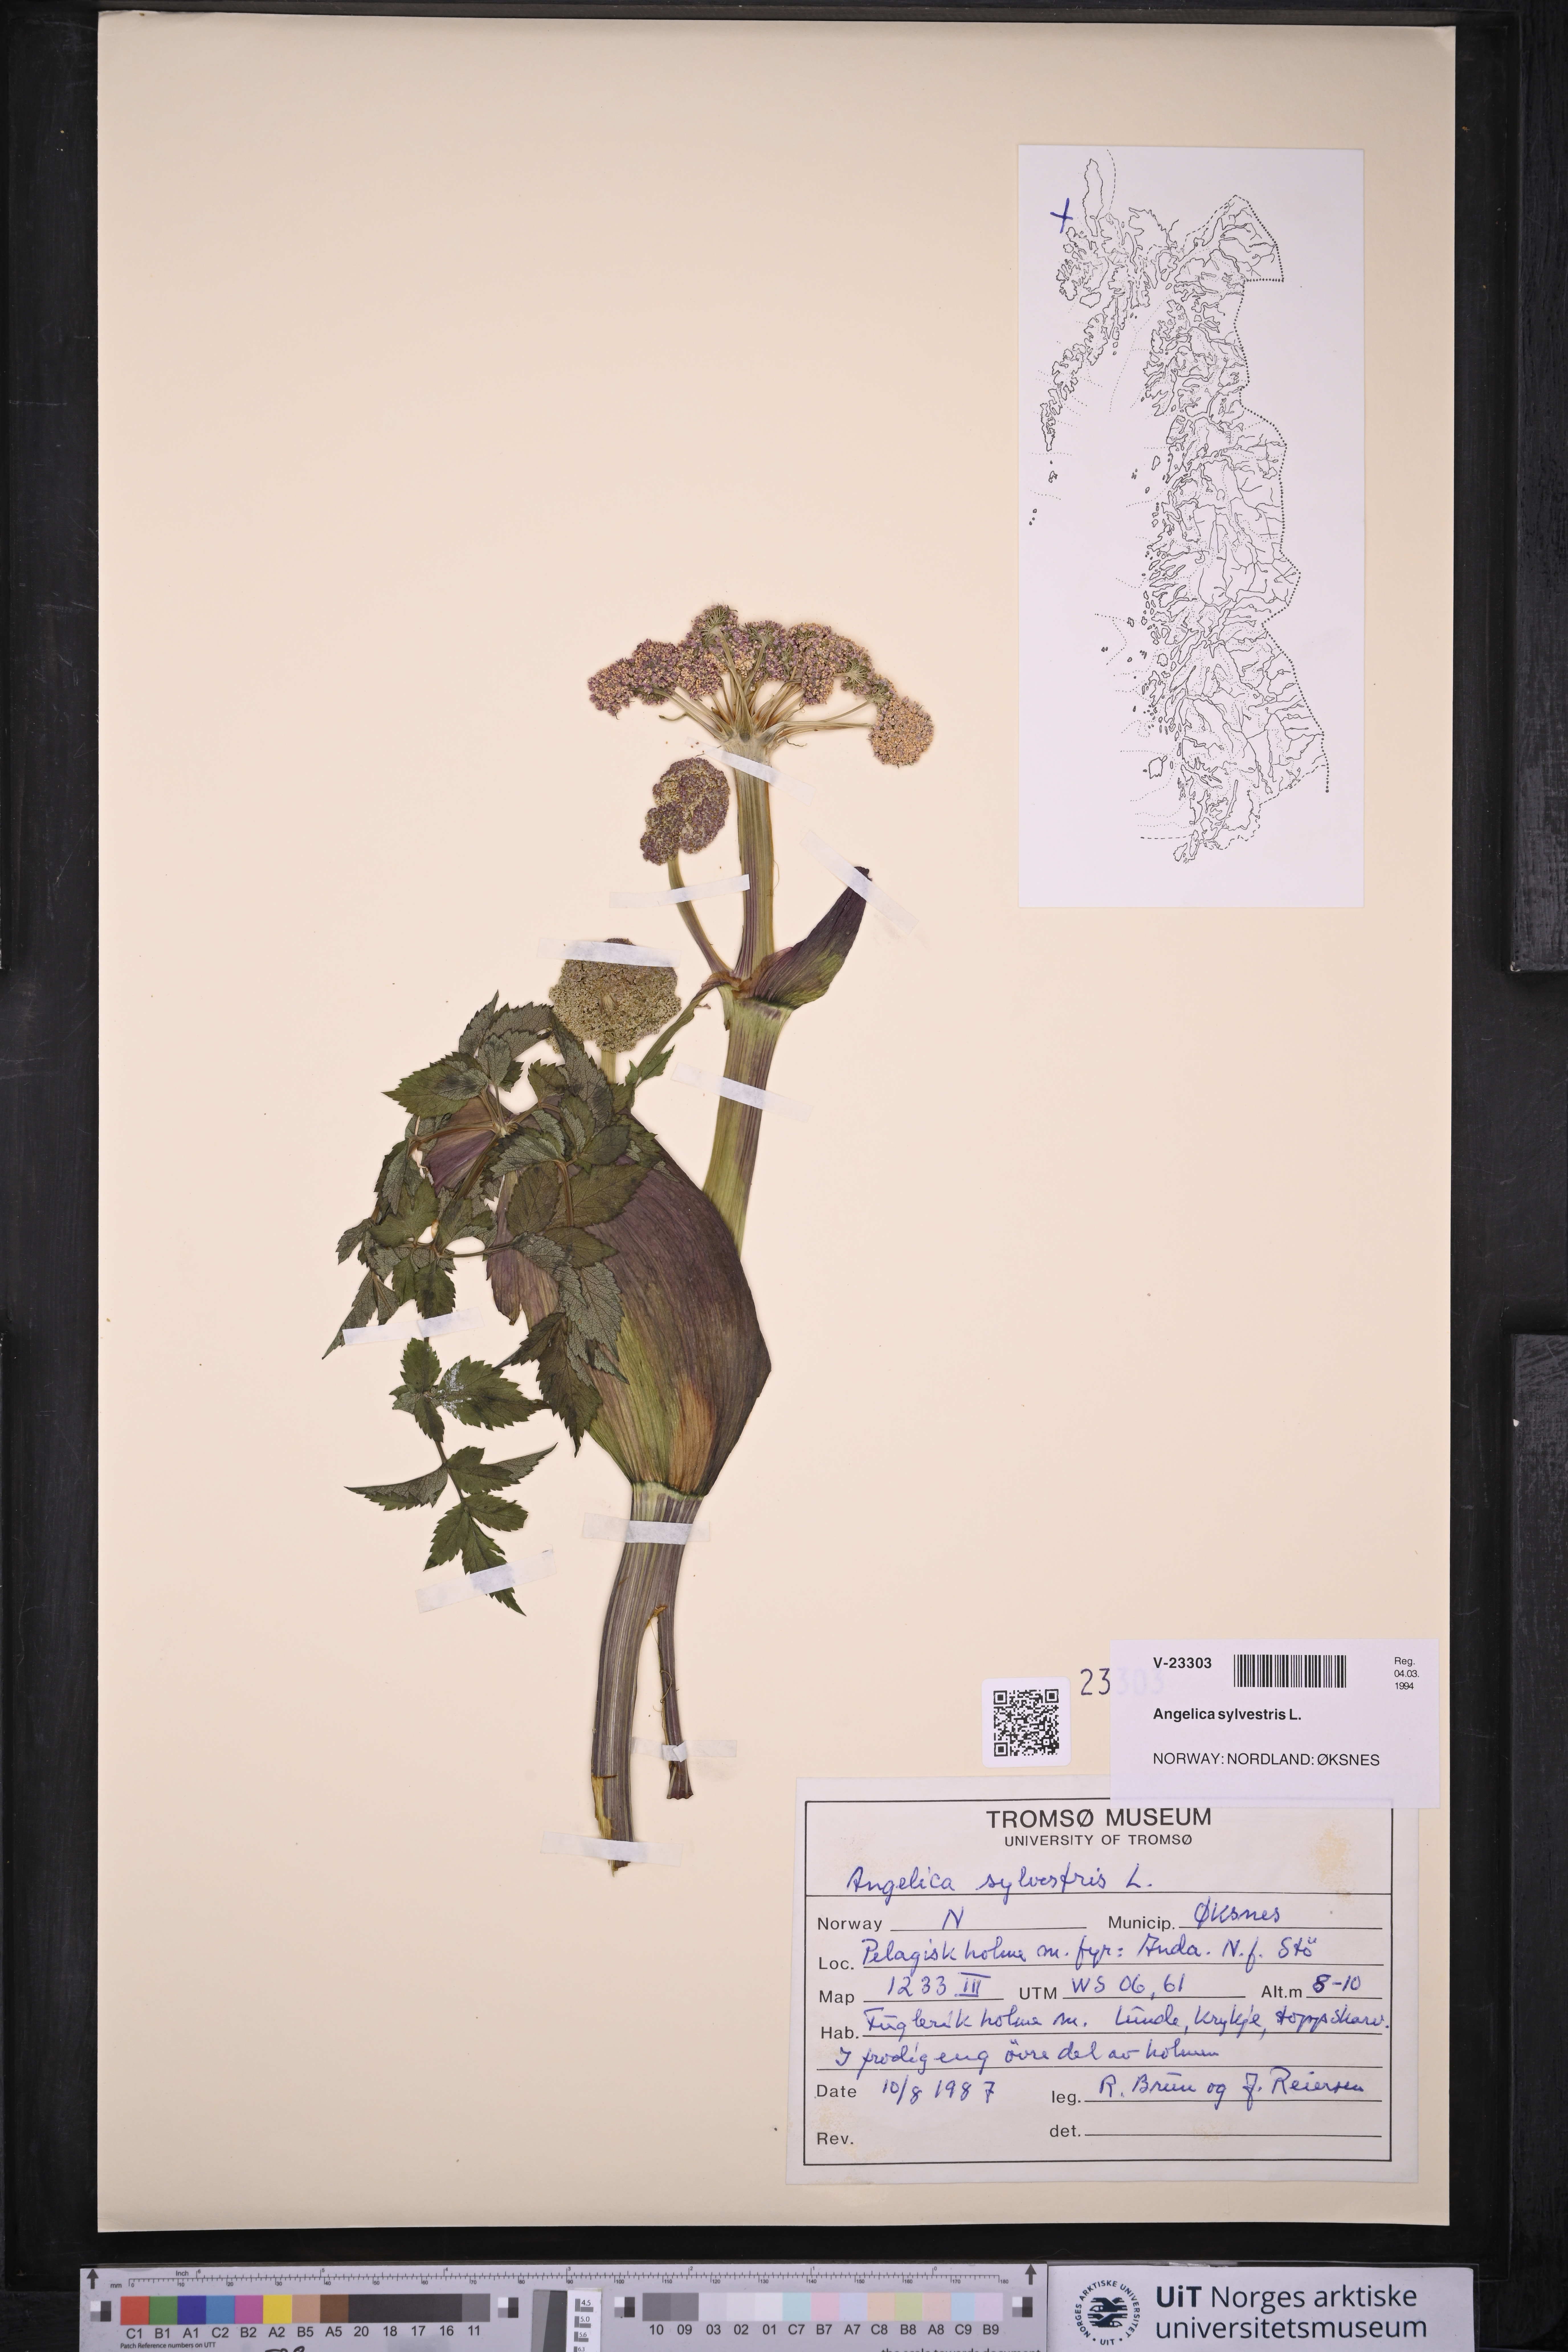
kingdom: Plantae
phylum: Tracheophyta
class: Magnoliopsida
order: Apiales
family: Apiaceae
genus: Angelica
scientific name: Angelica sylvestris
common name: Wild angelica
